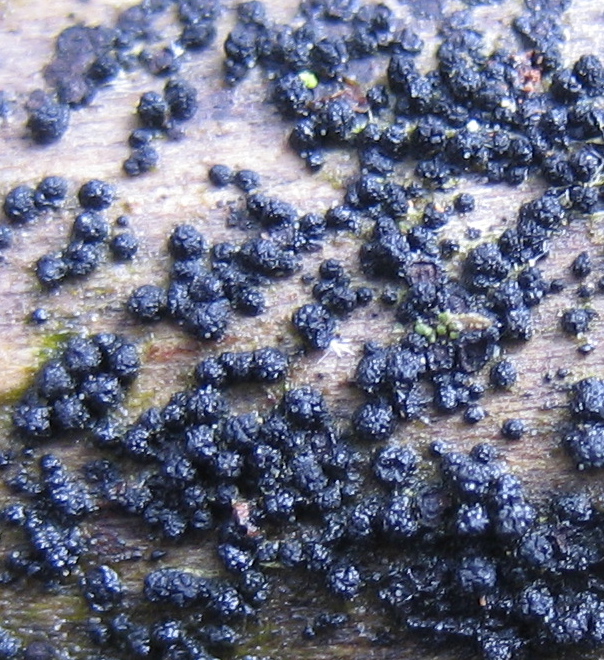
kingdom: Fungi
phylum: Ascomycota
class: Sordariomycetes
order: Coronophorales
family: Bertiaceae
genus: Bertia
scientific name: Bertia moriformis
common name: almindelig morbærkerne
